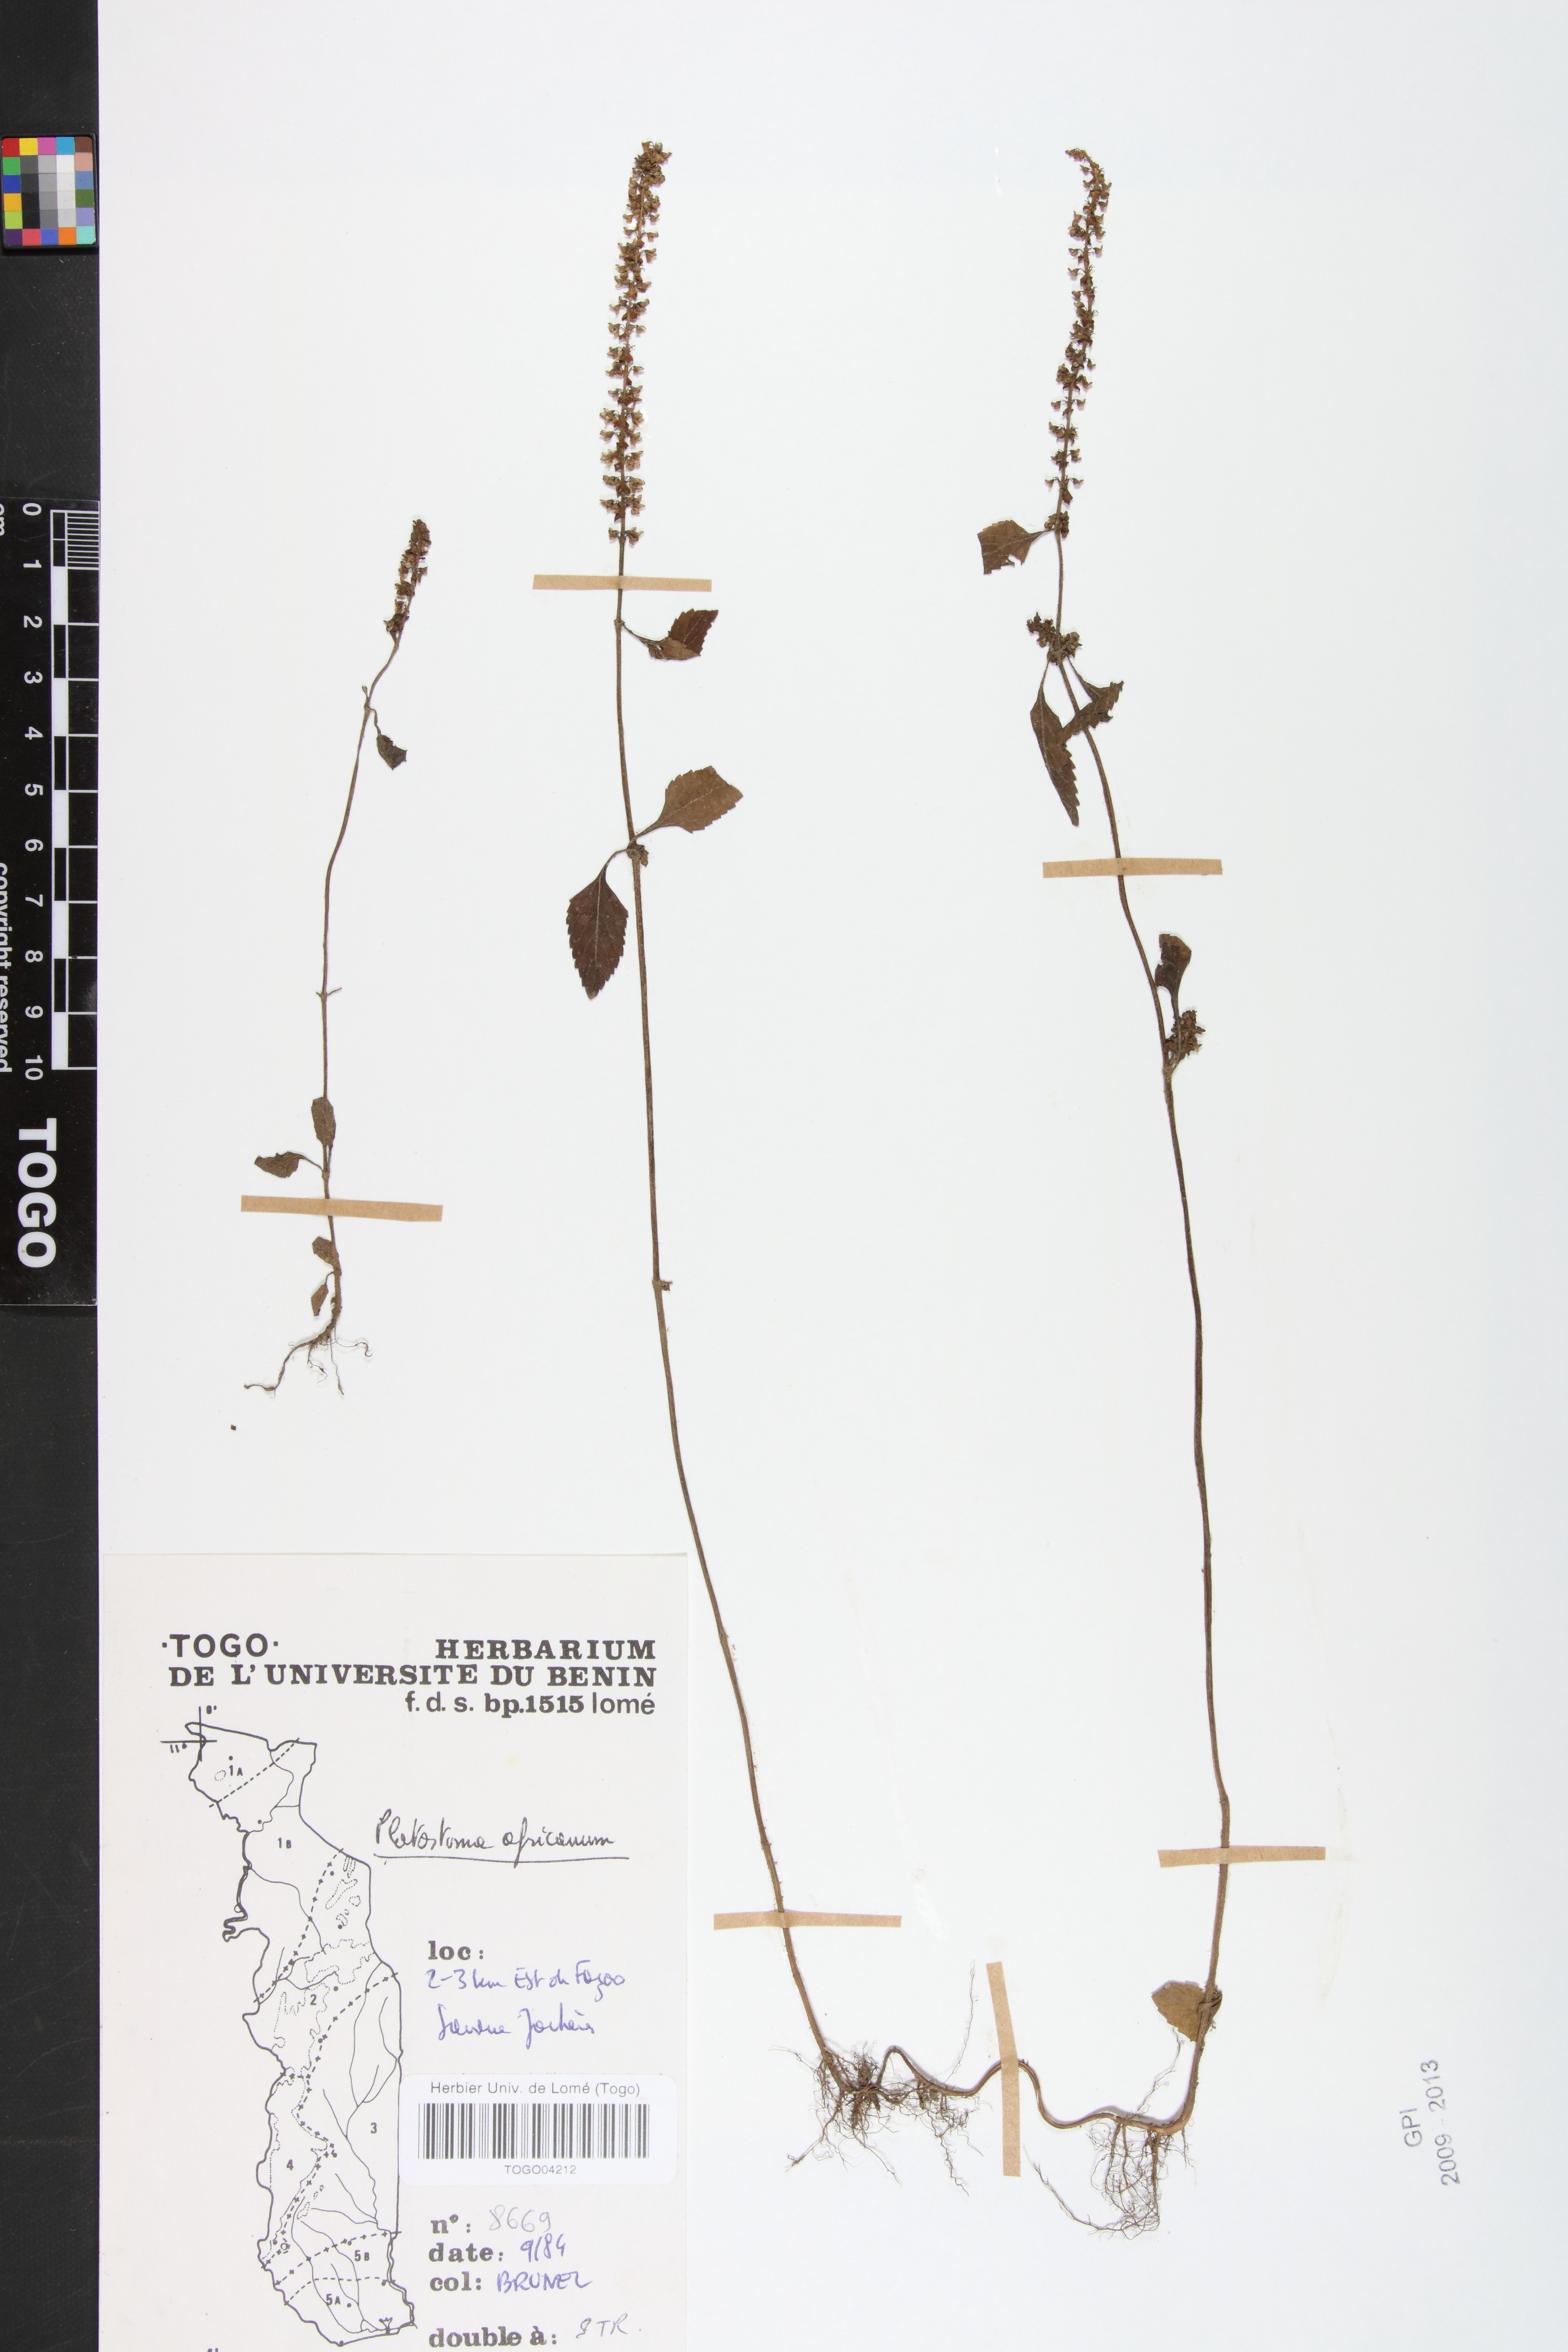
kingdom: Plantae
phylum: Tracheophyta
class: Magnoliopsida
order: Lamiales
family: Lamiaceae
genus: Platostoma
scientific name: Platostoma africanum
